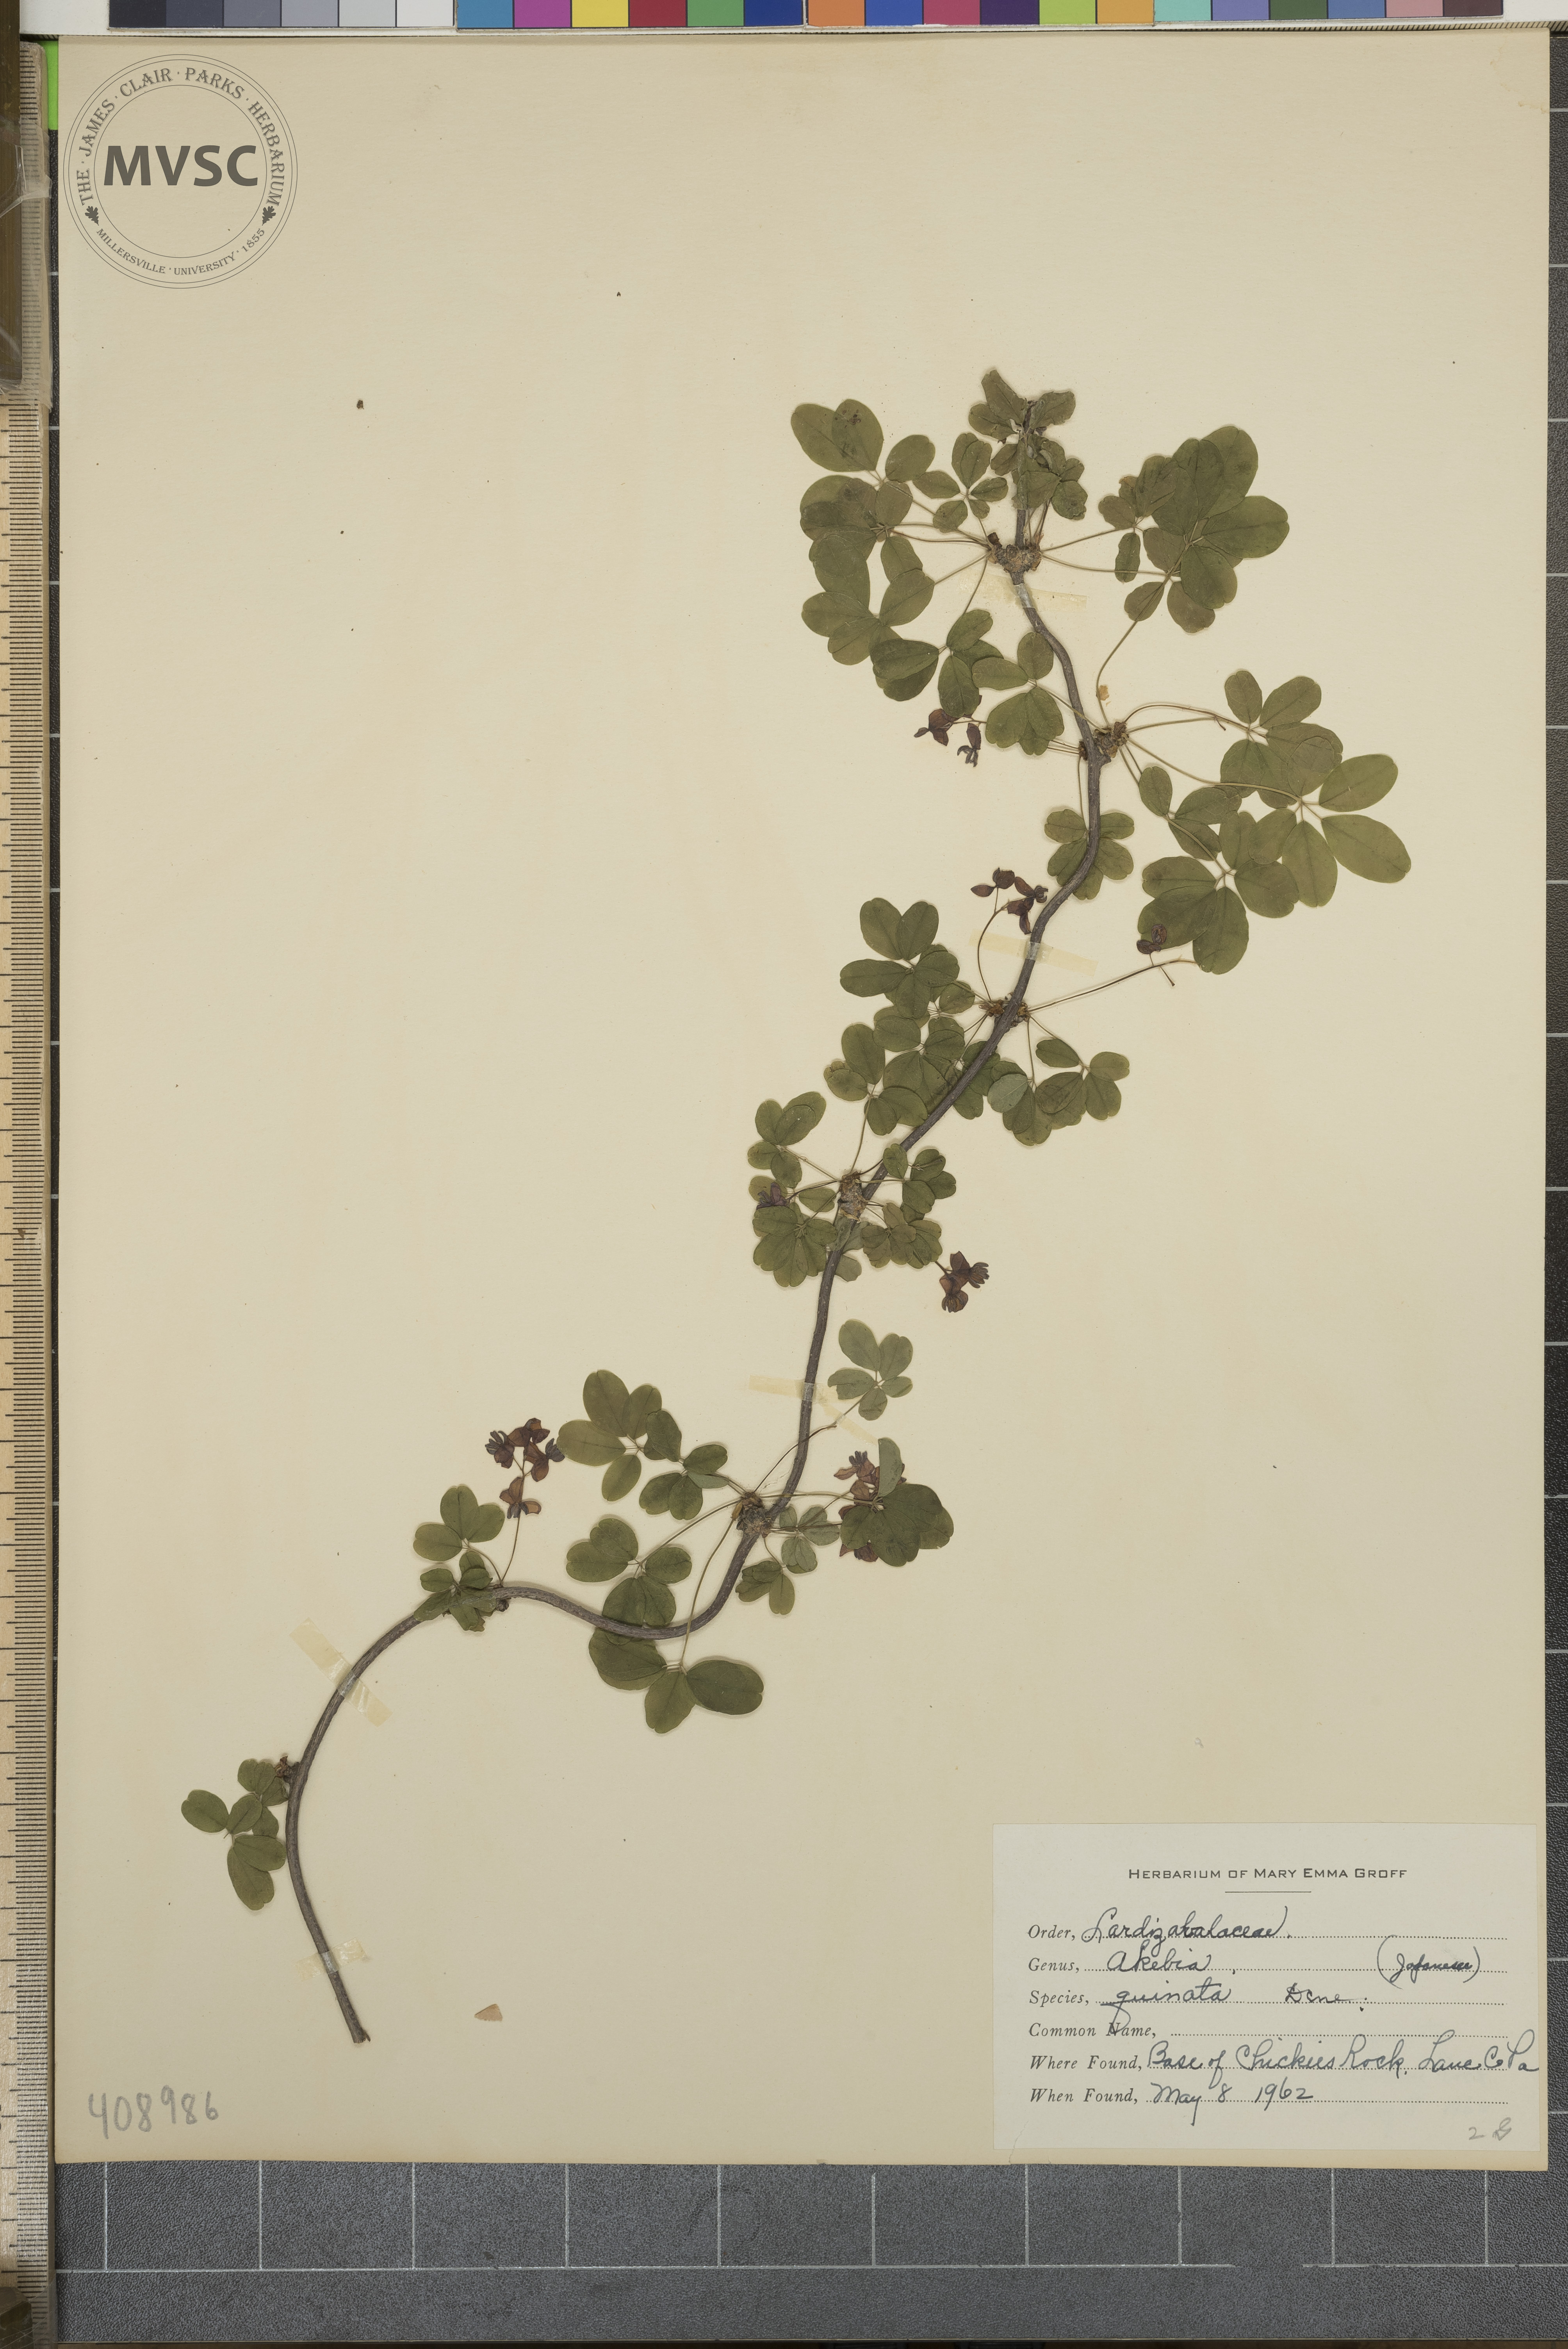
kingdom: Plantae
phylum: Tracheophyta
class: Magnoliopsida
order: Ranunculales
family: Lardizabalaceae
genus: Akebia
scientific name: Akebia quinata
